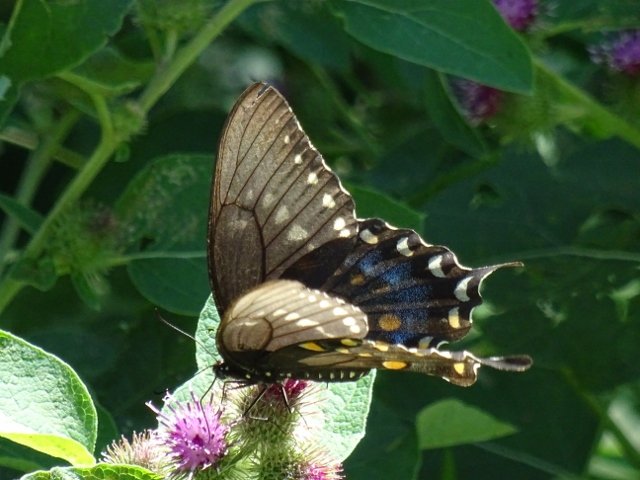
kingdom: Animalia
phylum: Arthropoda
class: Insecta
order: Lepidoptera
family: Papilionidae
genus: Papilio
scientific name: Papilio
